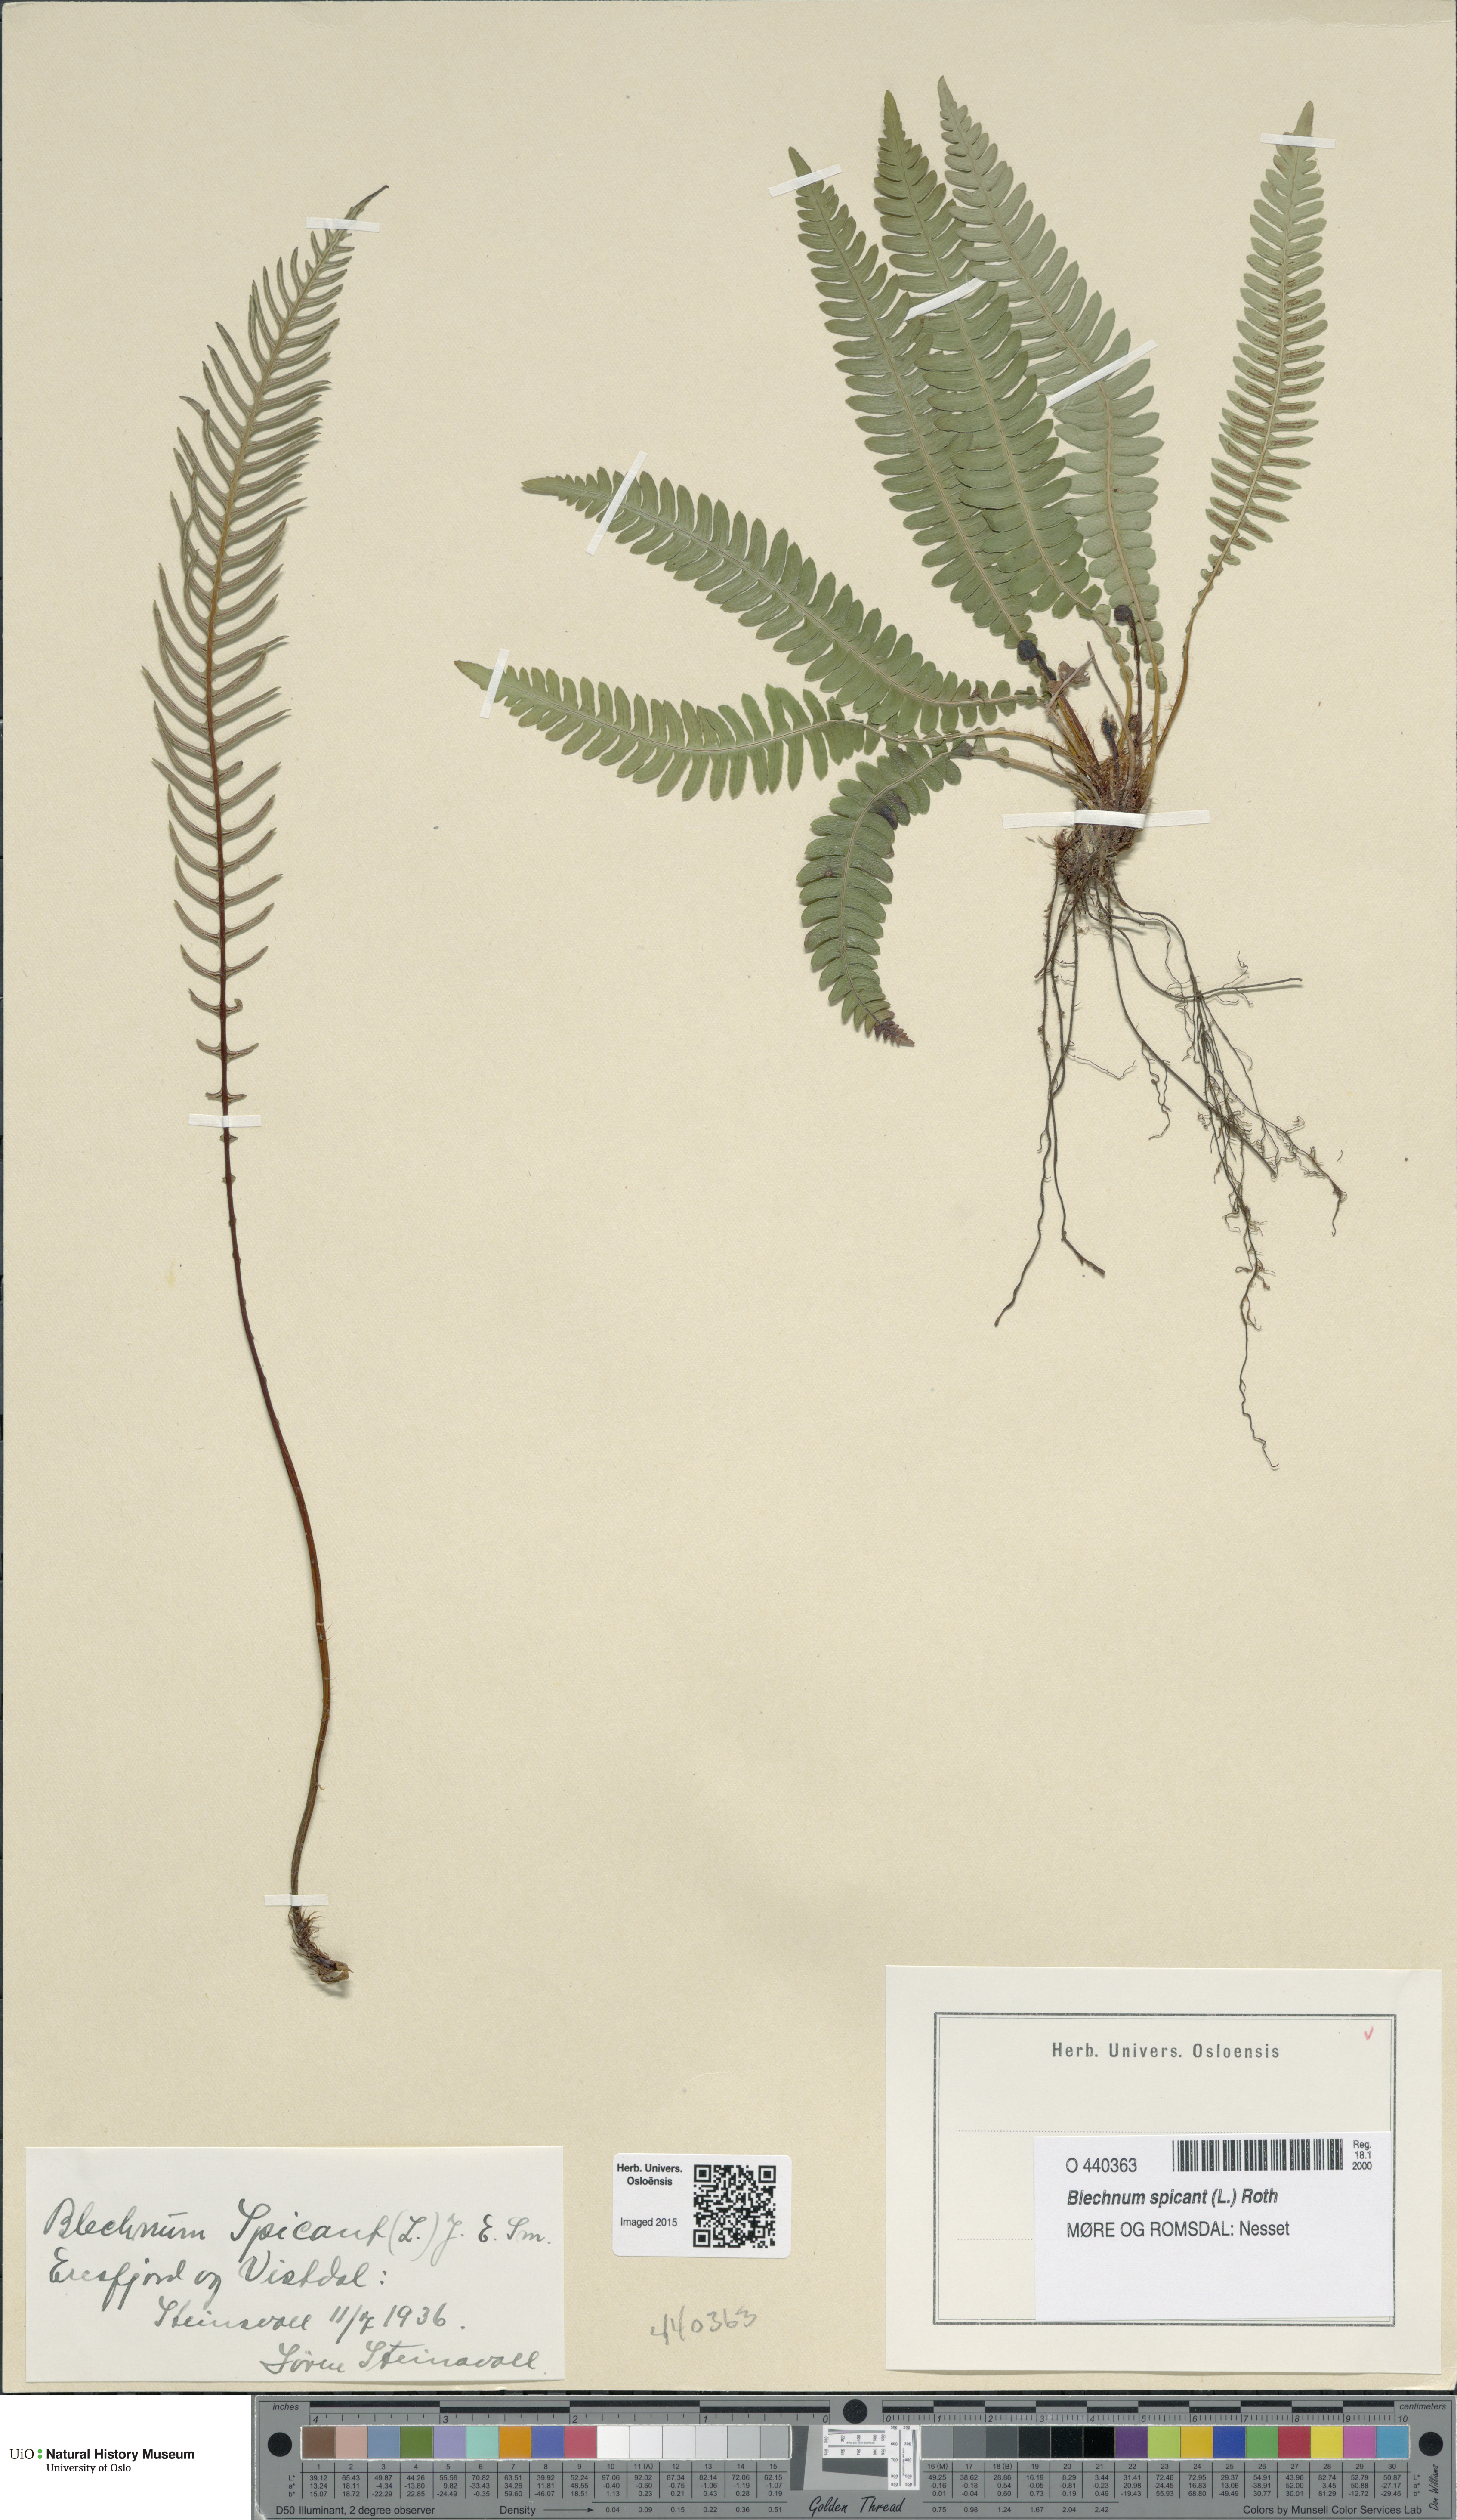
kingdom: Plantae
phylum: Tracheophyta
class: Polypodiopsida
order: Polypodiales
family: Blechnaceae
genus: Struthiopteris
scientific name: Struthiopteris spicant
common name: Deer fern
